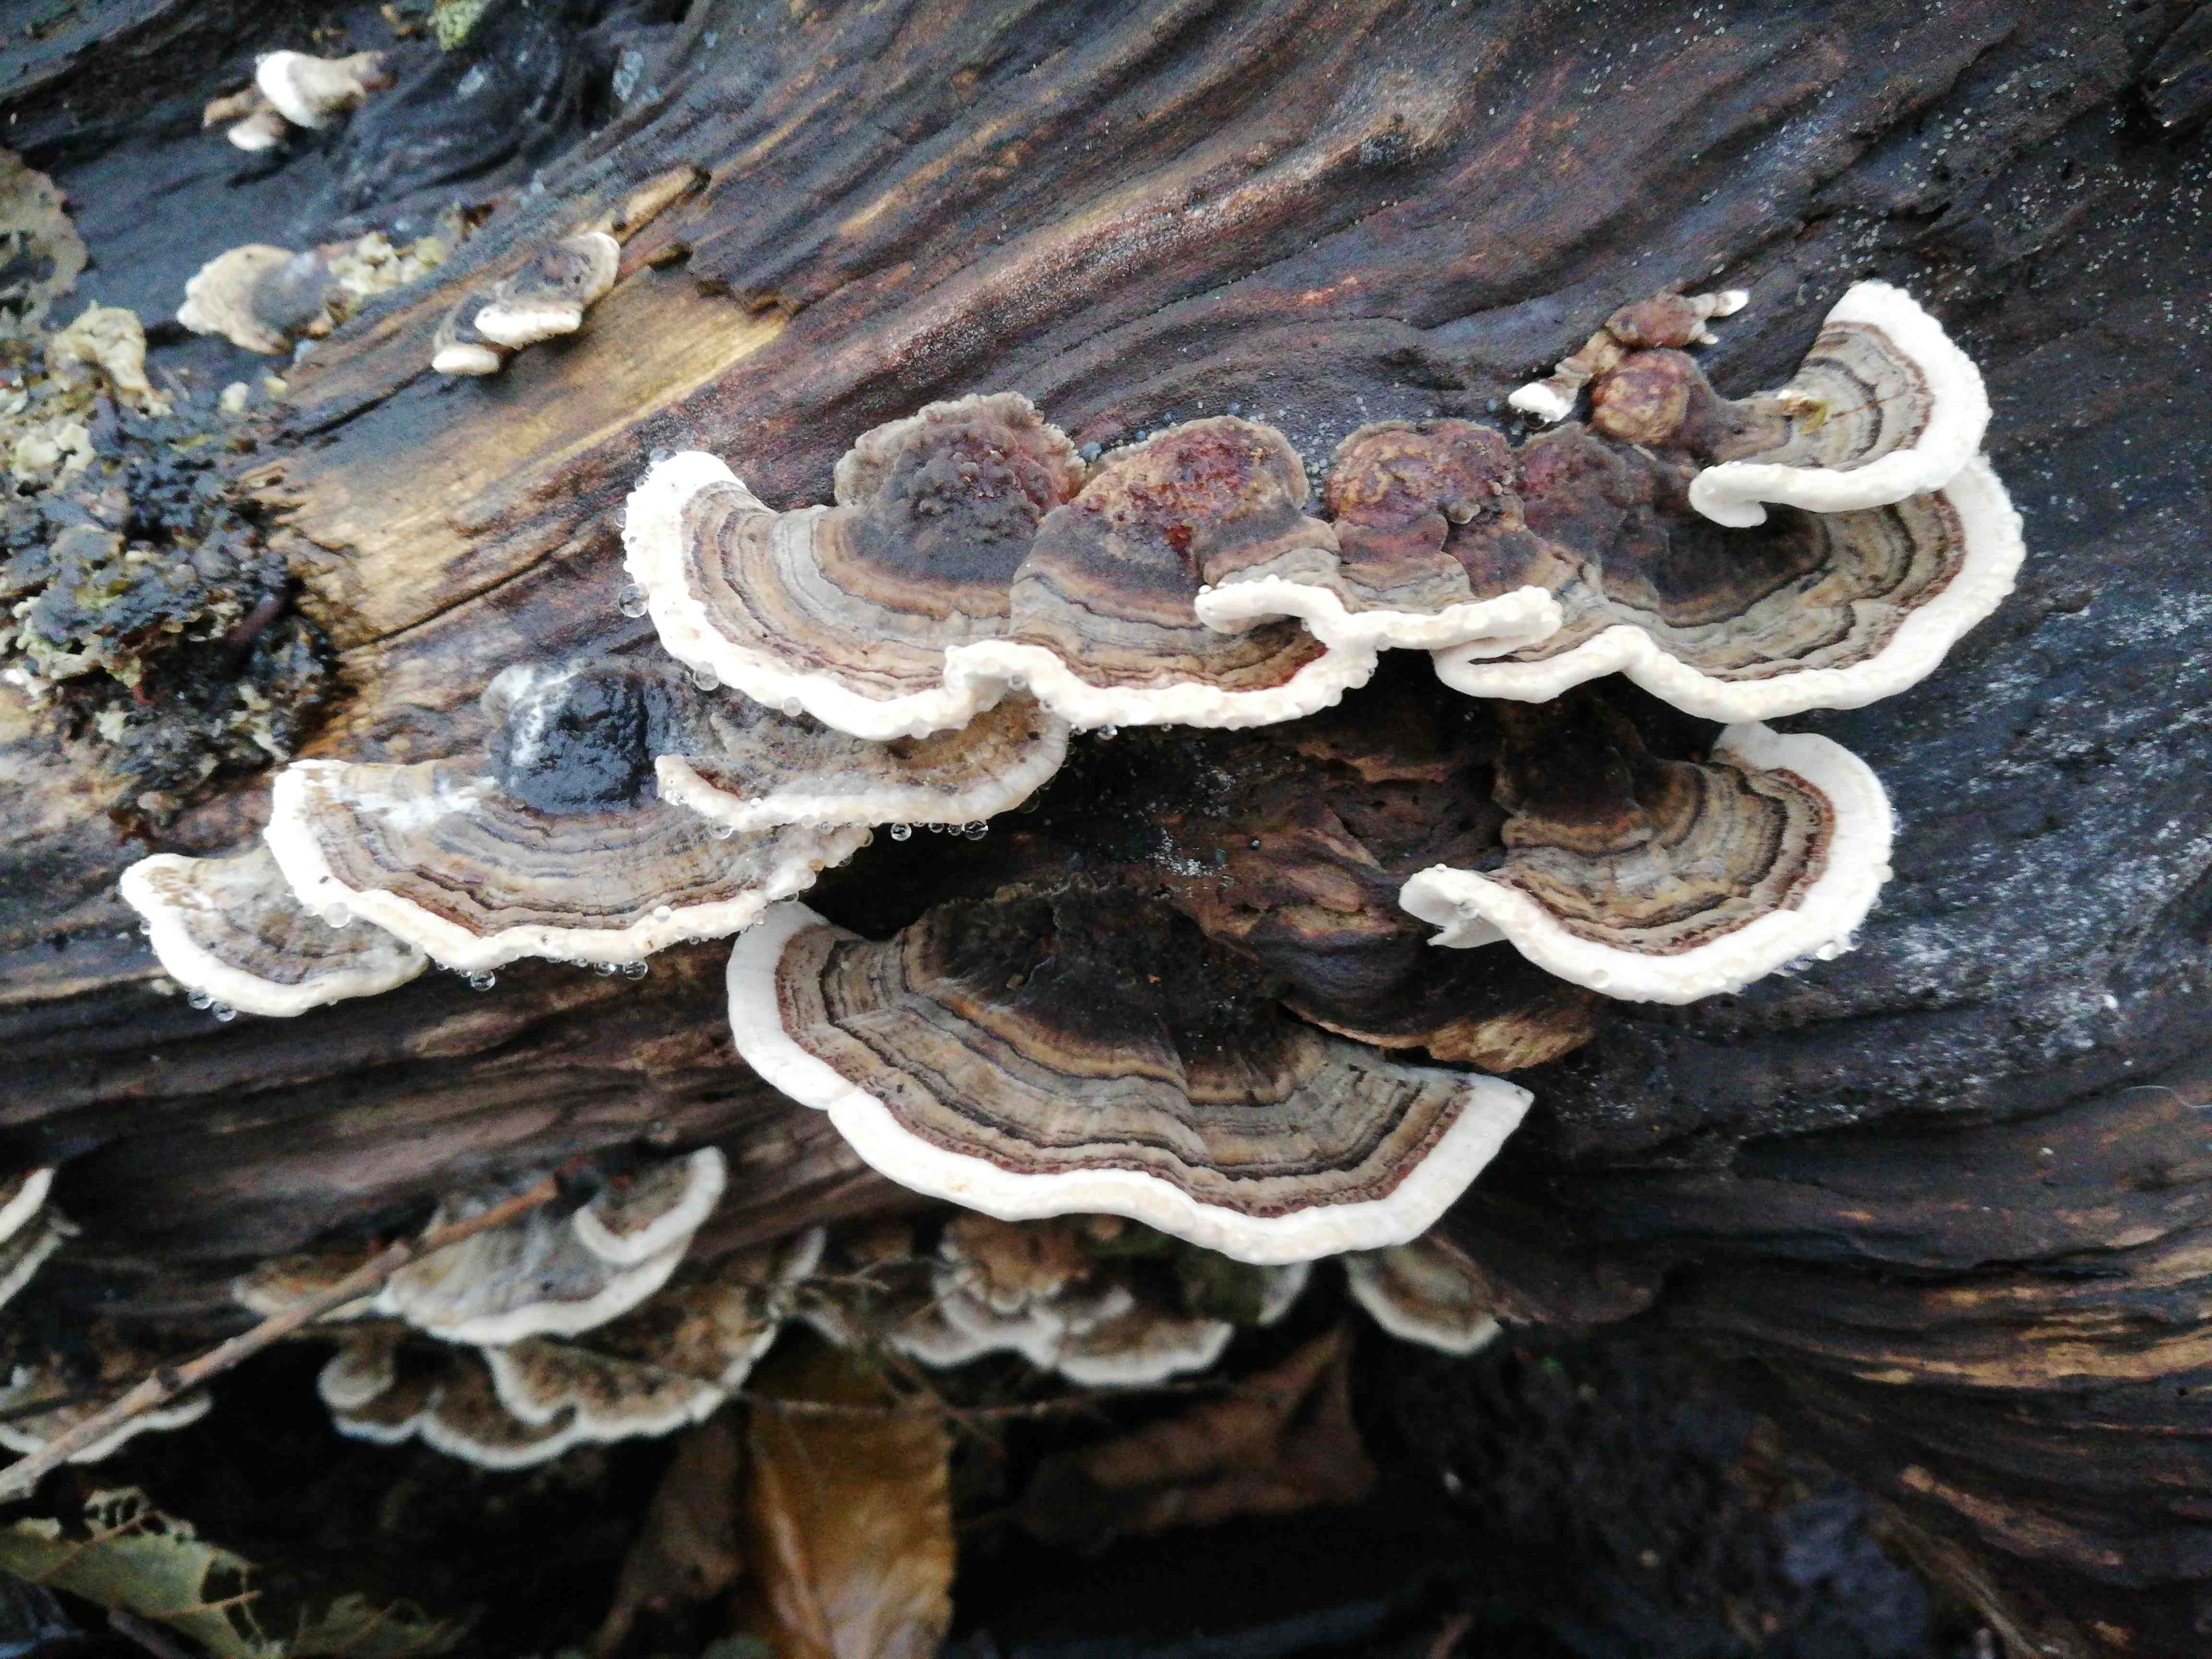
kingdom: Fungi
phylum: Basidiomycota
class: Agaricomycetes
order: Polyporales
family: Polyporaceae
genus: Trametes
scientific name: Trametes versicolor
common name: broget læderporesvamp
